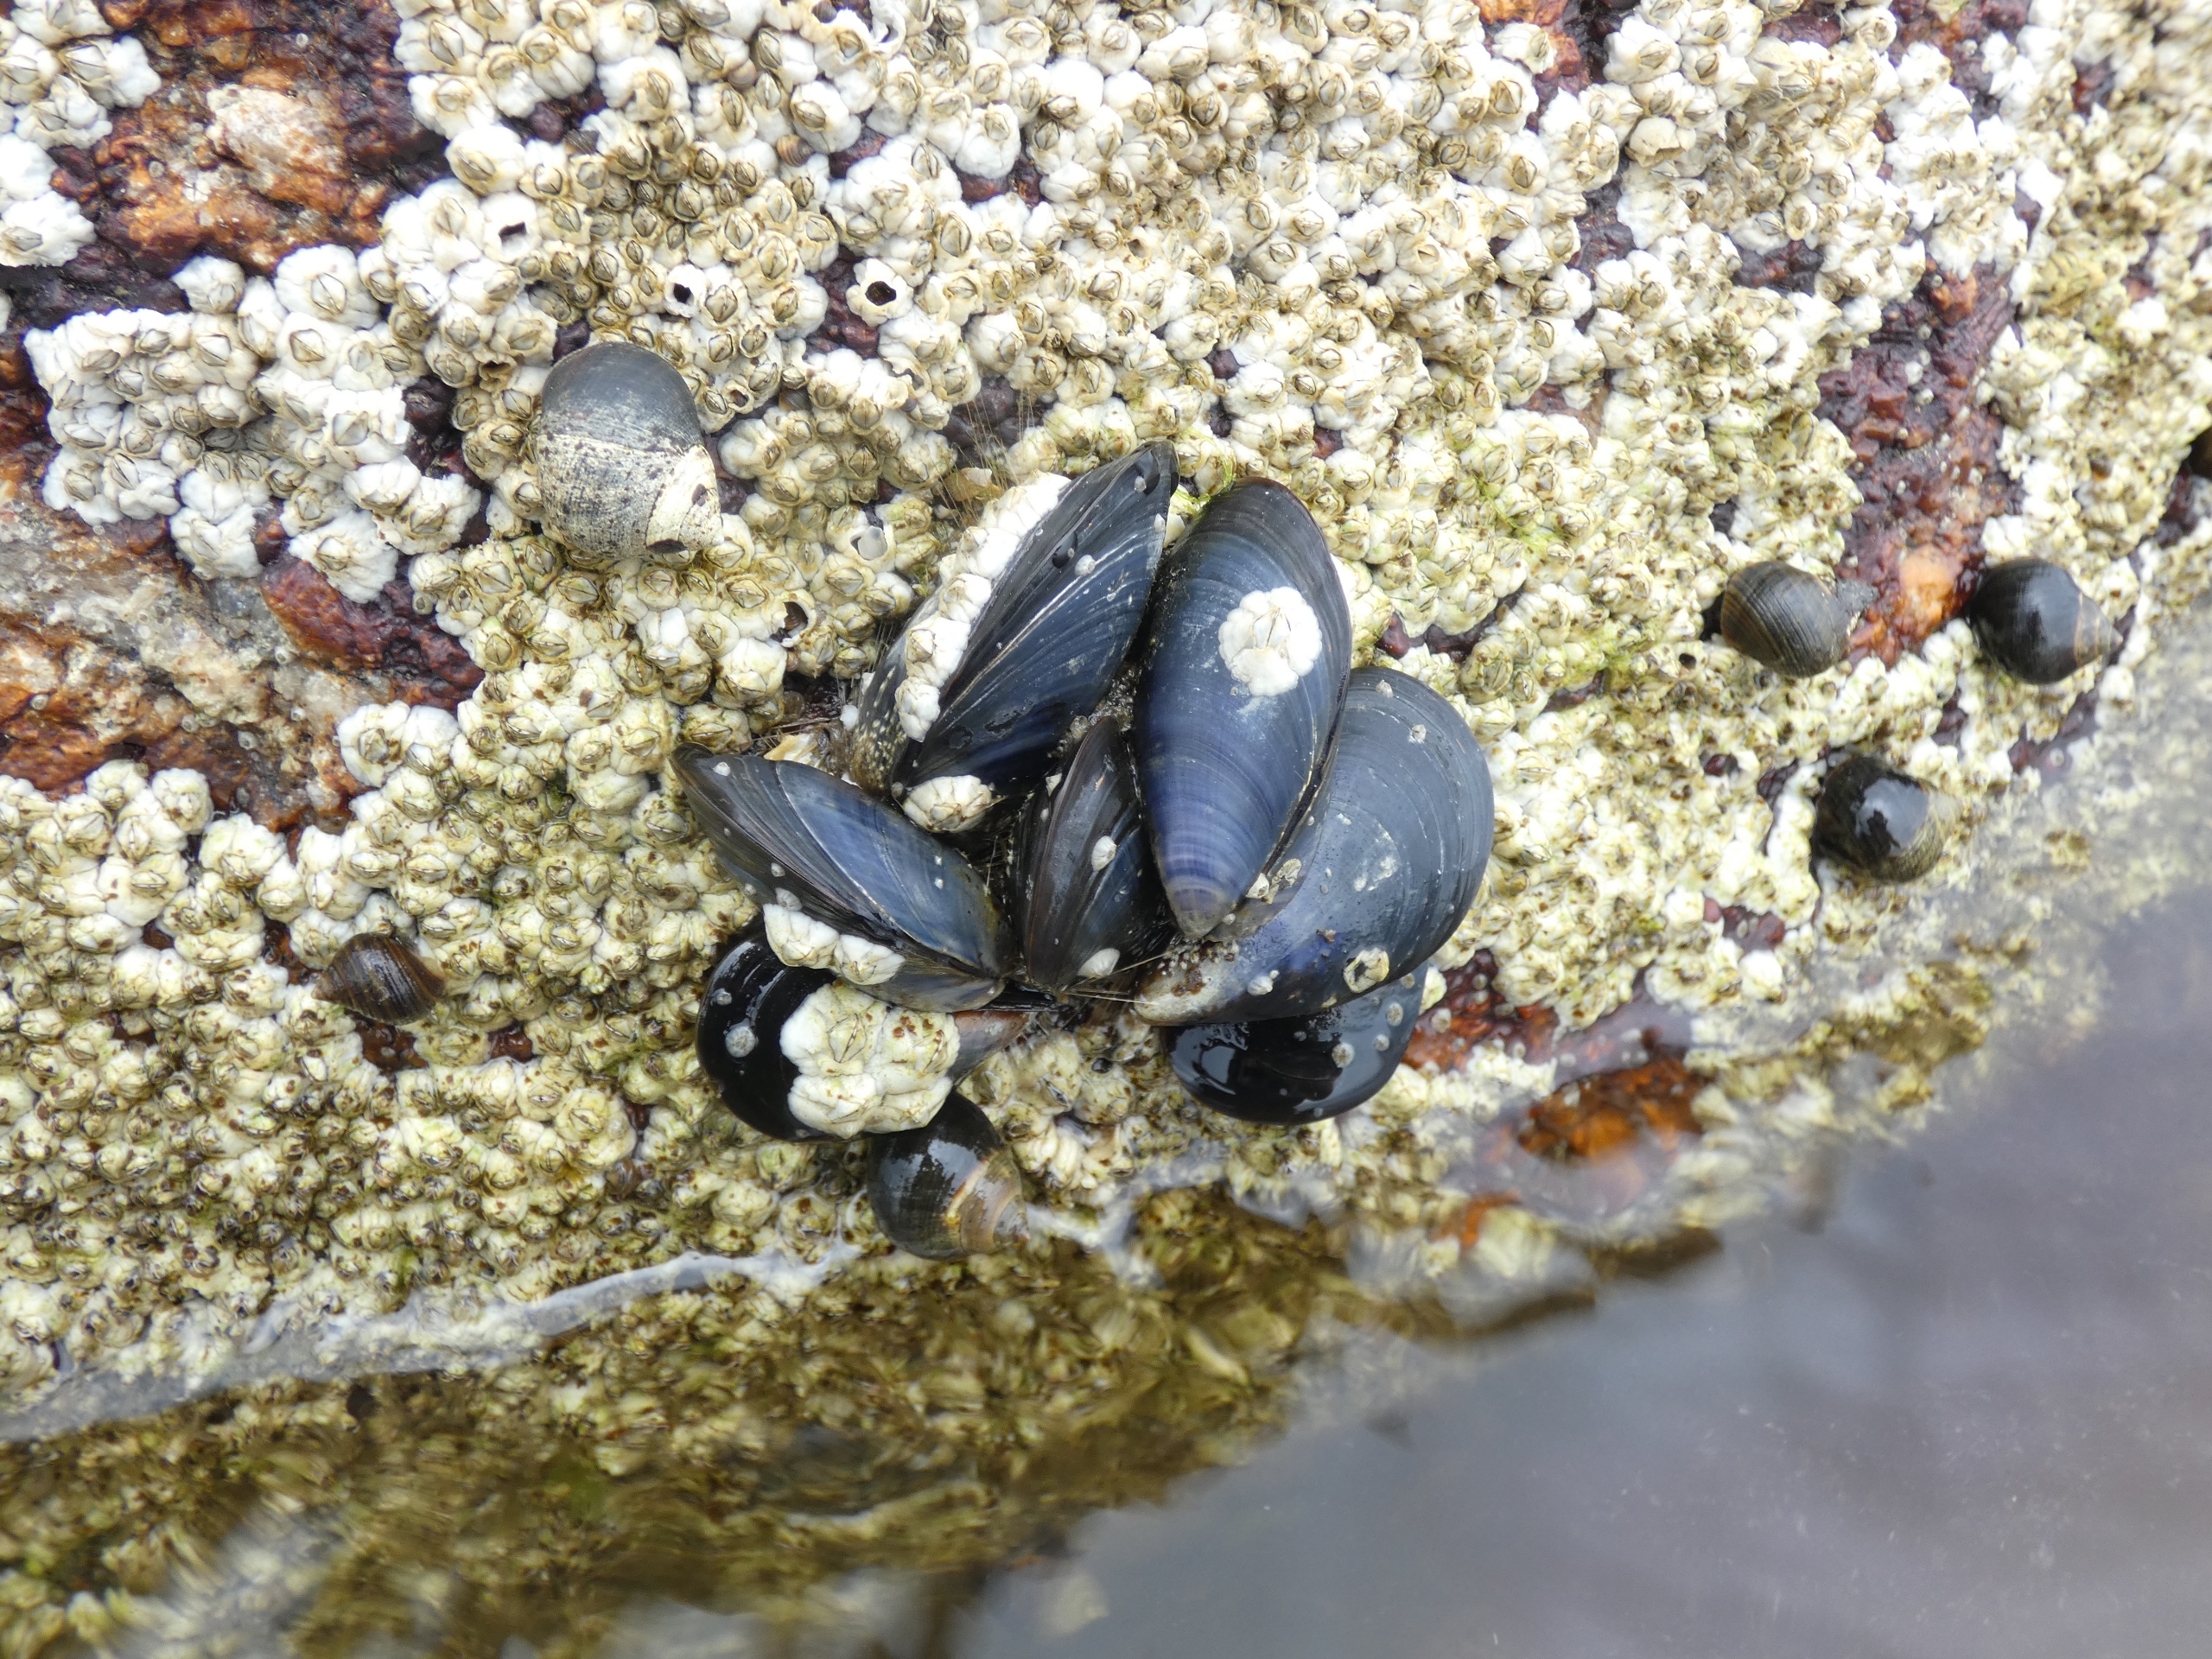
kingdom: Animalia
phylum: Mollusca
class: Bivalvia
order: Mytilida
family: Mytilidae
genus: Mytilus
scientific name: Mytilus edulis
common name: Blåmusling
